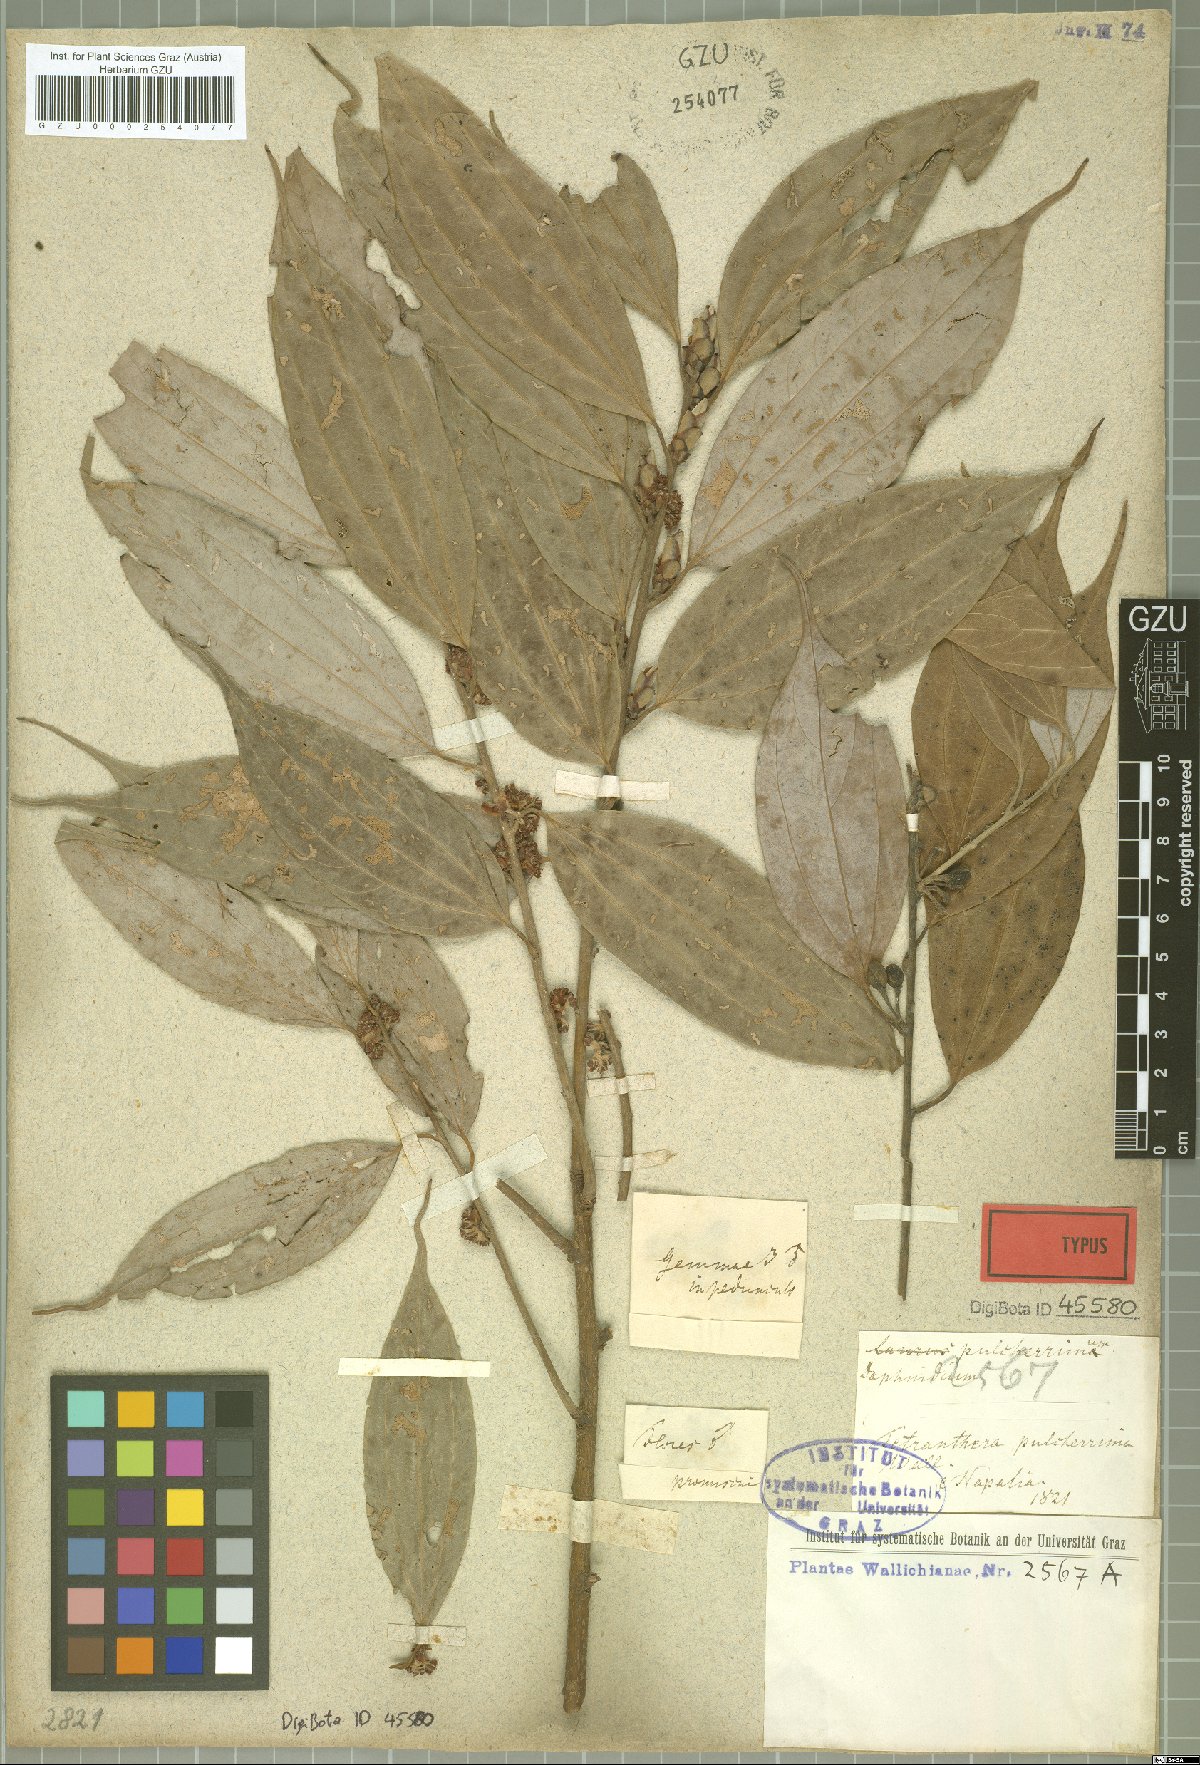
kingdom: Plantae
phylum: Tracheophyta
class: Magnoliopsida
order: Laurales
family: Lauraceae
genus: Lindera
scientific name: Lindera pulcherrima
